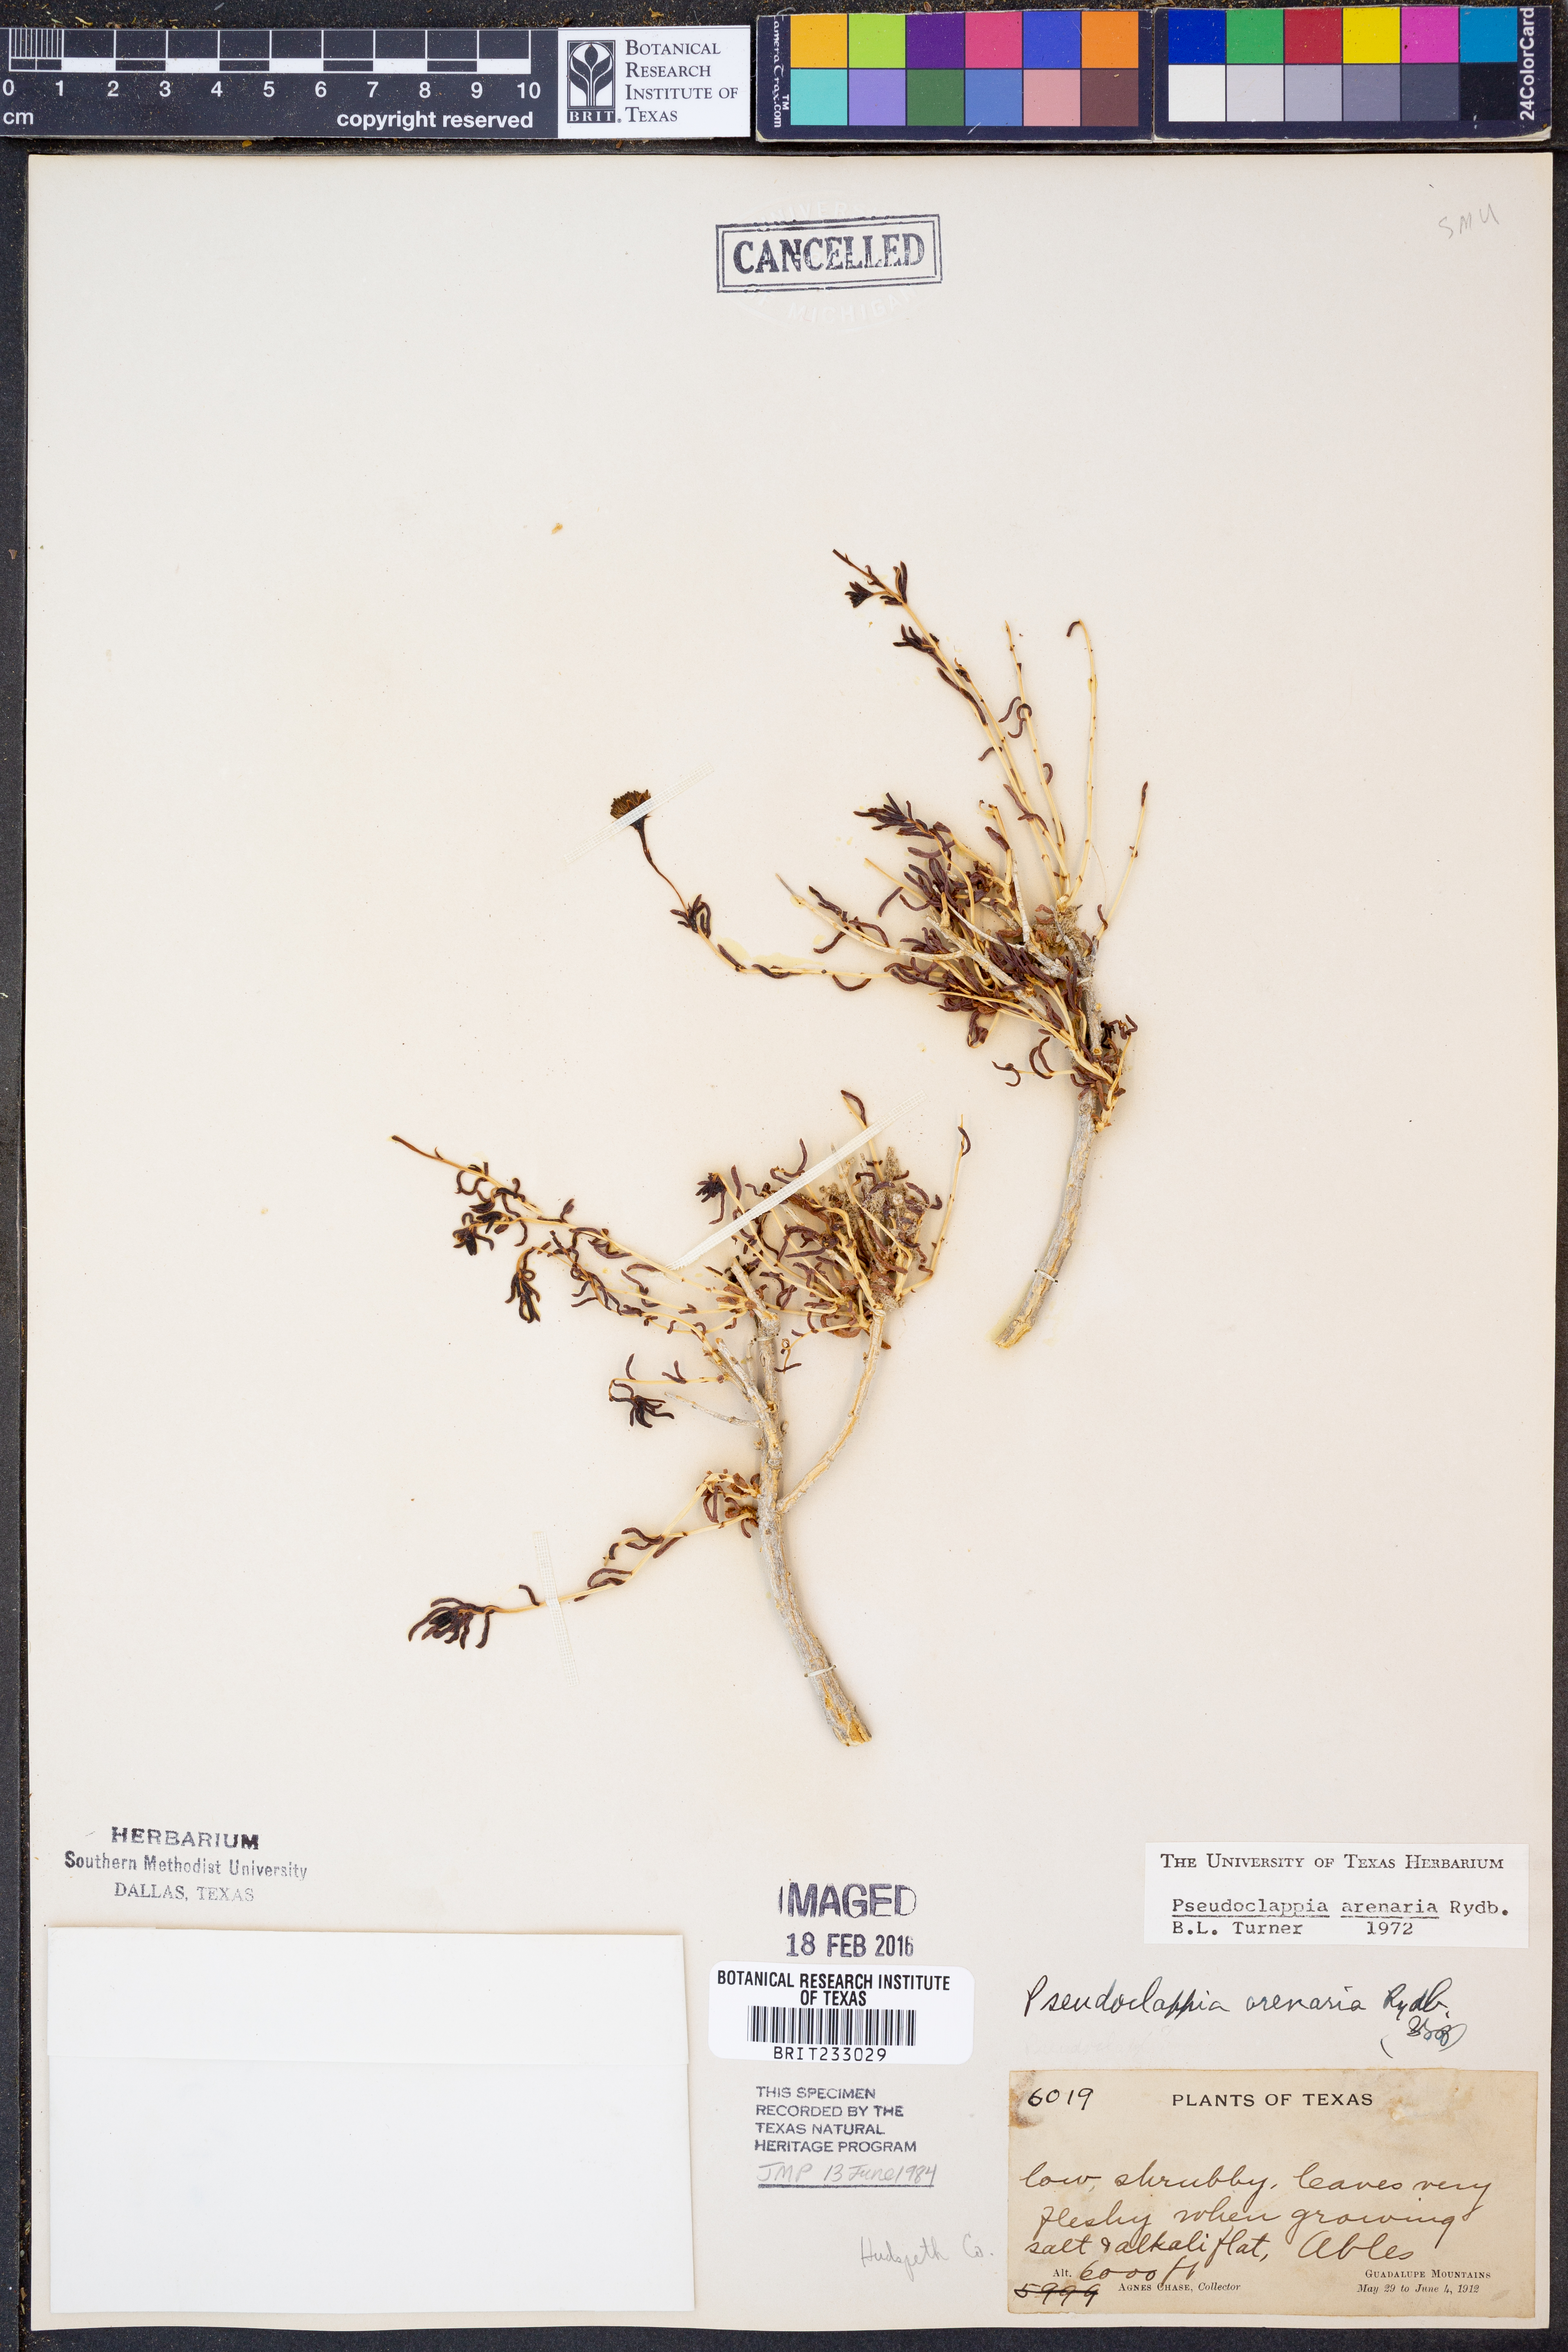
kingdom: Plantae
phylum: Tracheophyta
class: Magnoliopsida
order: Asterales
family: Asteraceae
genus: Pseudoclappia
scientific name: Pseudoclappia arenaria
